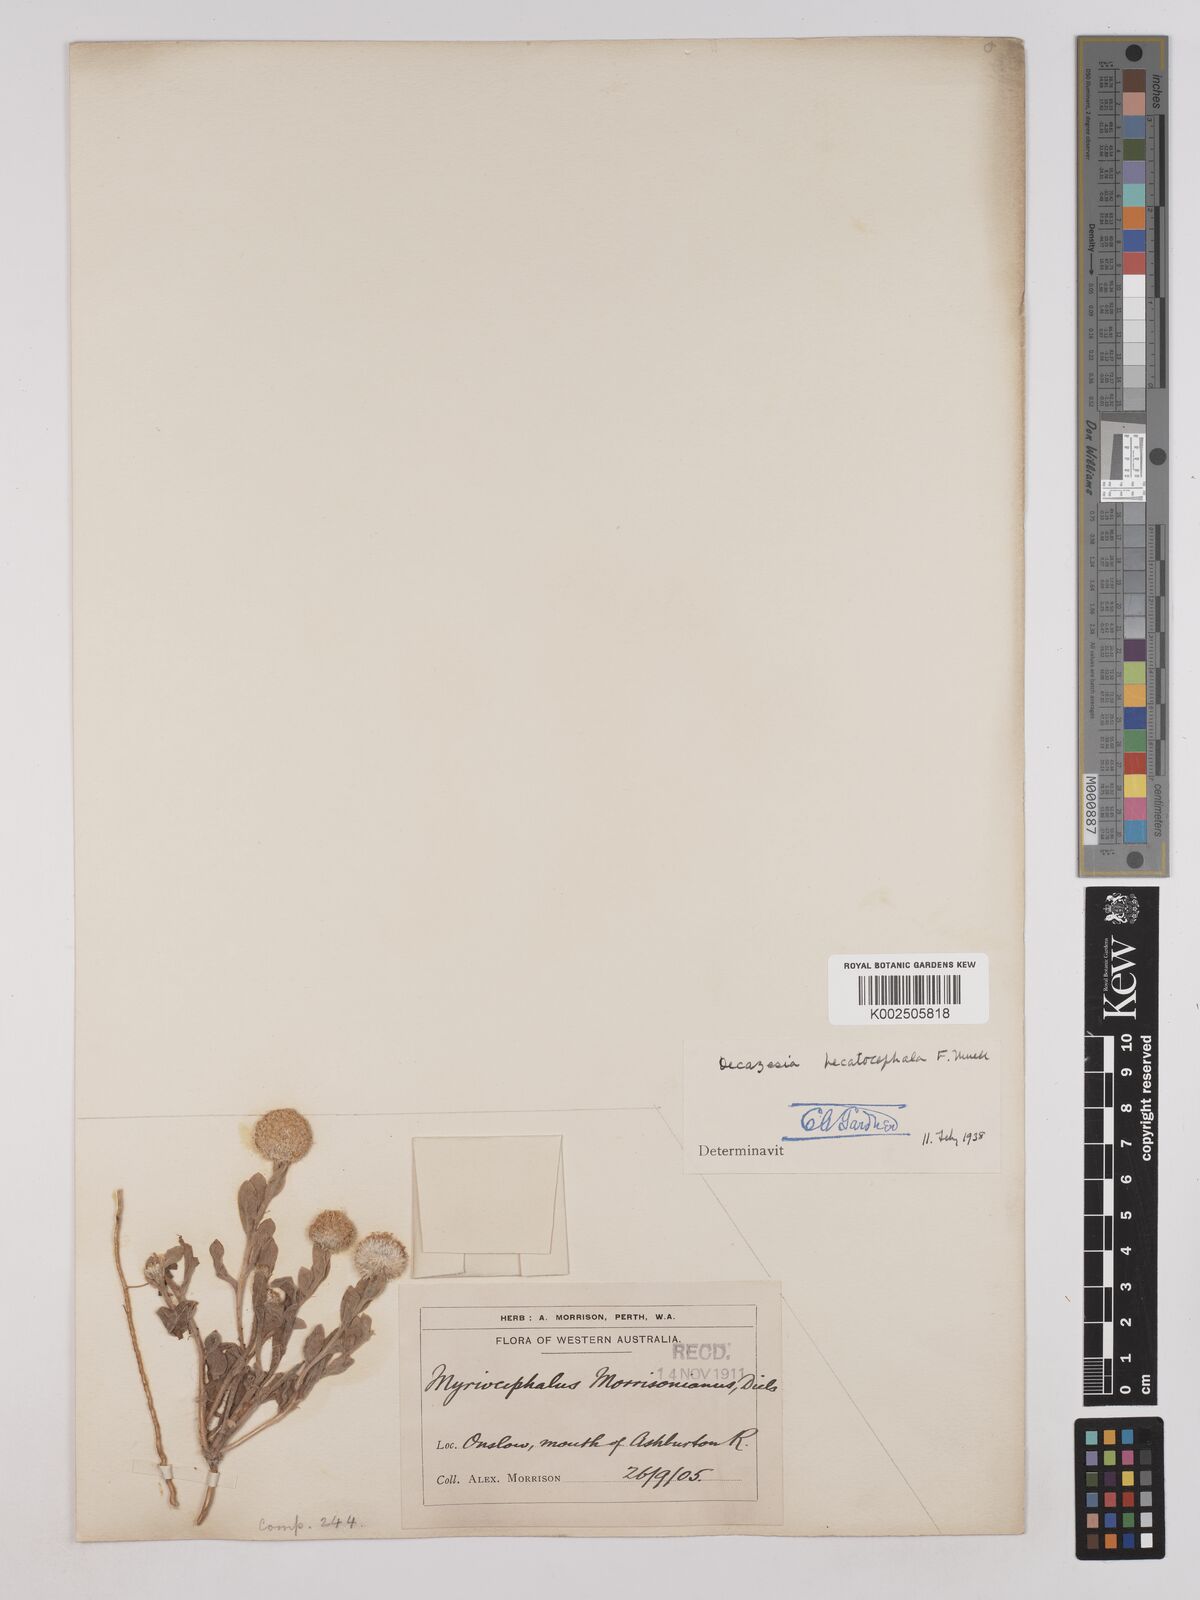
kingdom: Plantae
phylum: Tracheophyta
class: Magnoliopsida
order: Asterales
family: Asteraceae
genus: Decazesia
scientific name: Decazesia hecatocephala
